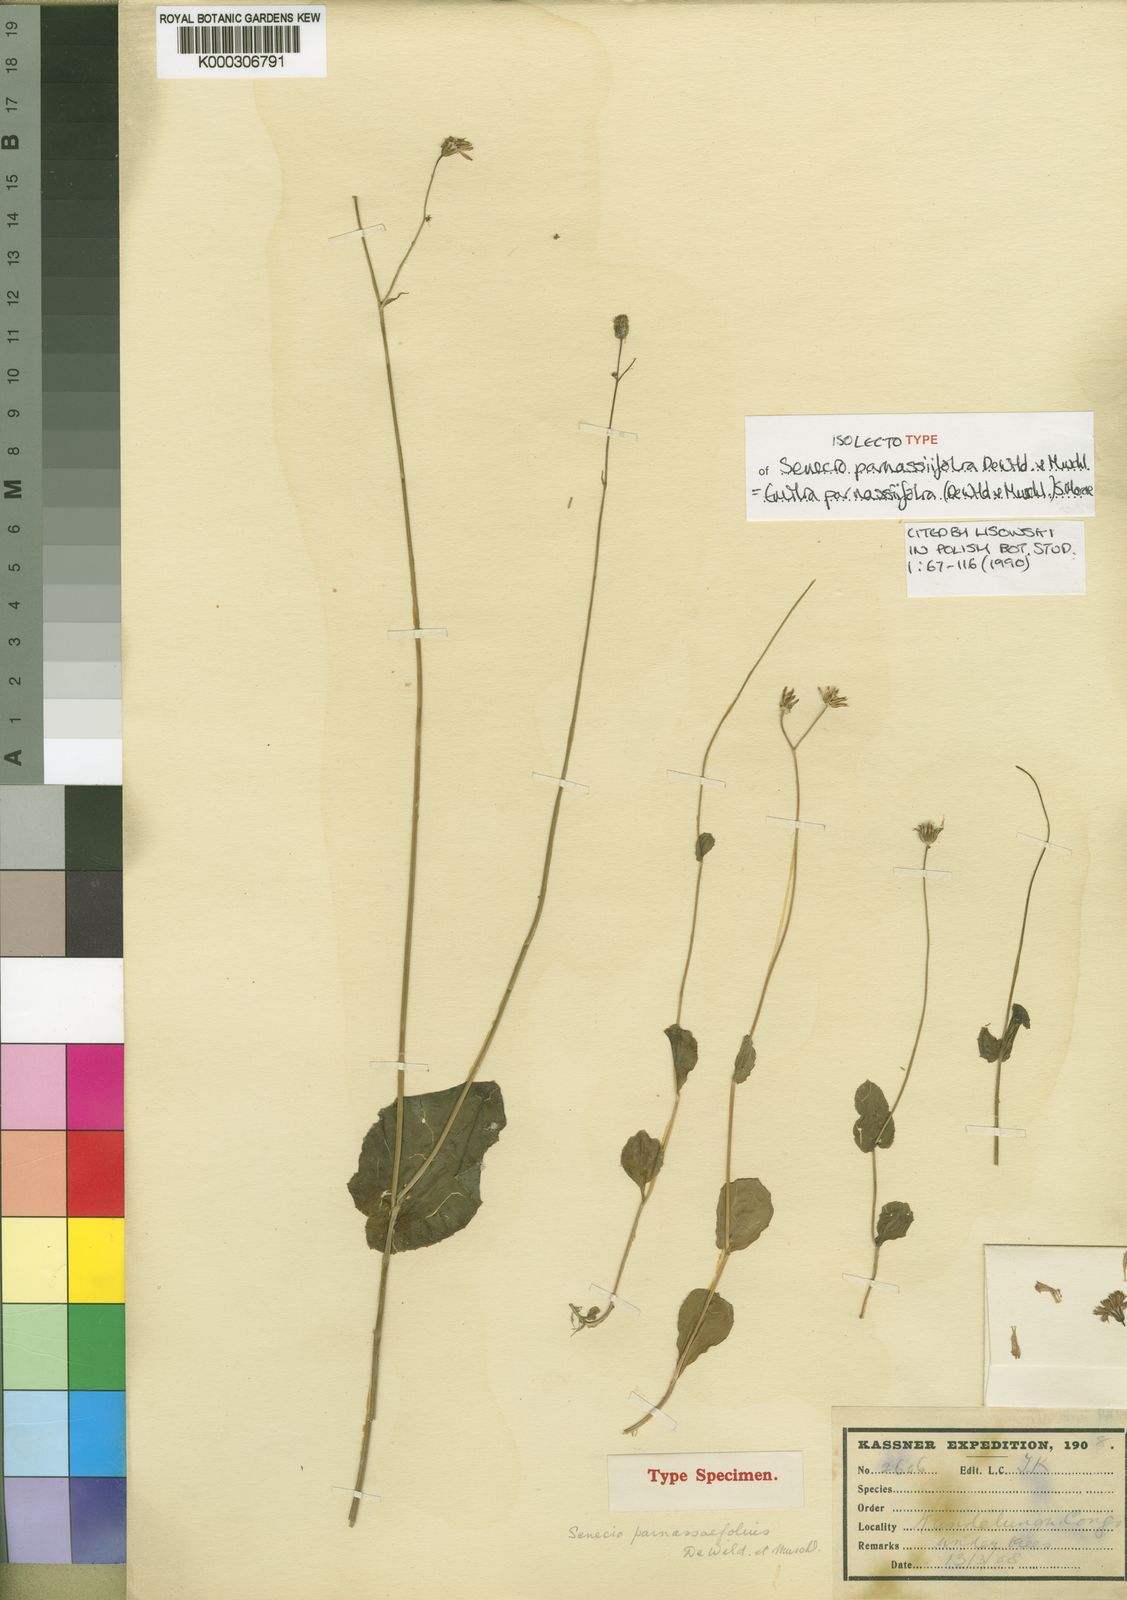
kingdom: Plantae
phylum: Tracheophyta
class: Magnoliopsida
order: Asterales
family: Asteraceae
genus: Emilia
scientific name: Emilia
